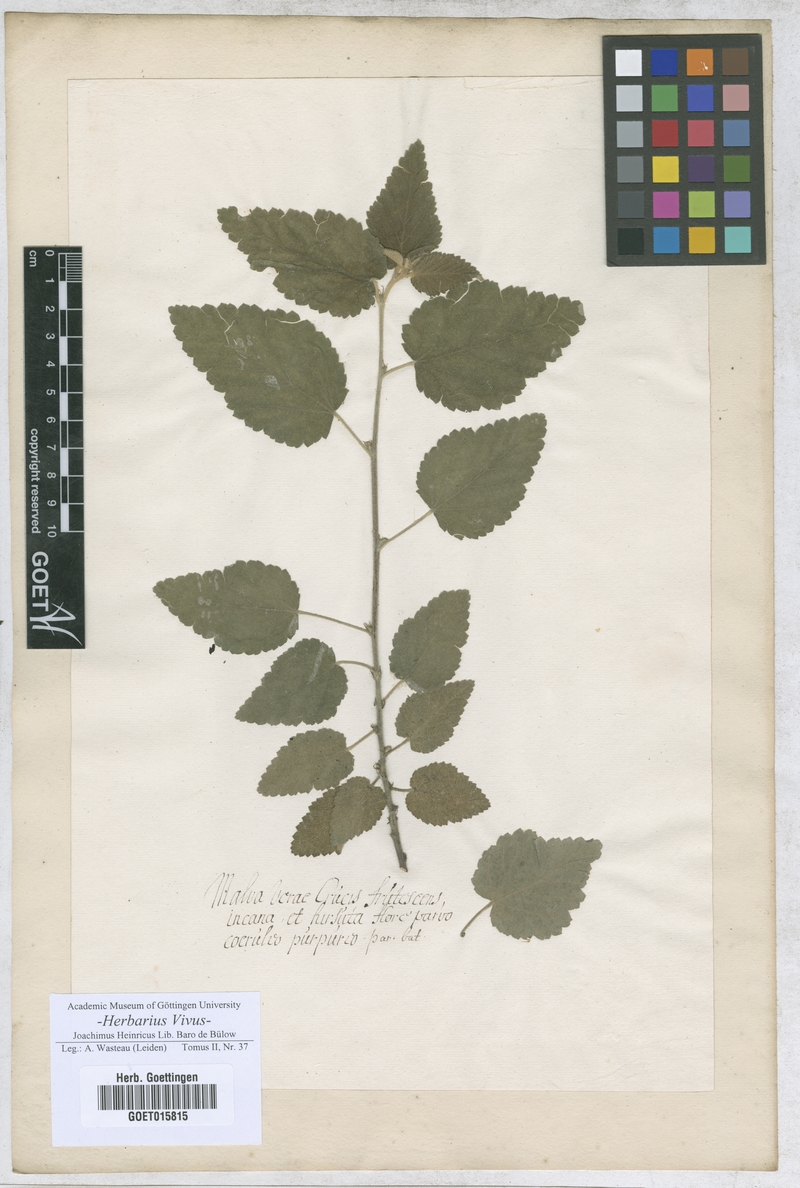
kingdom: Plantae
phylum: Tracheophyta
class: Magnoliopsida
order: Malvales
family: Malvaceae
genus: Malva
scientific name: Malva
